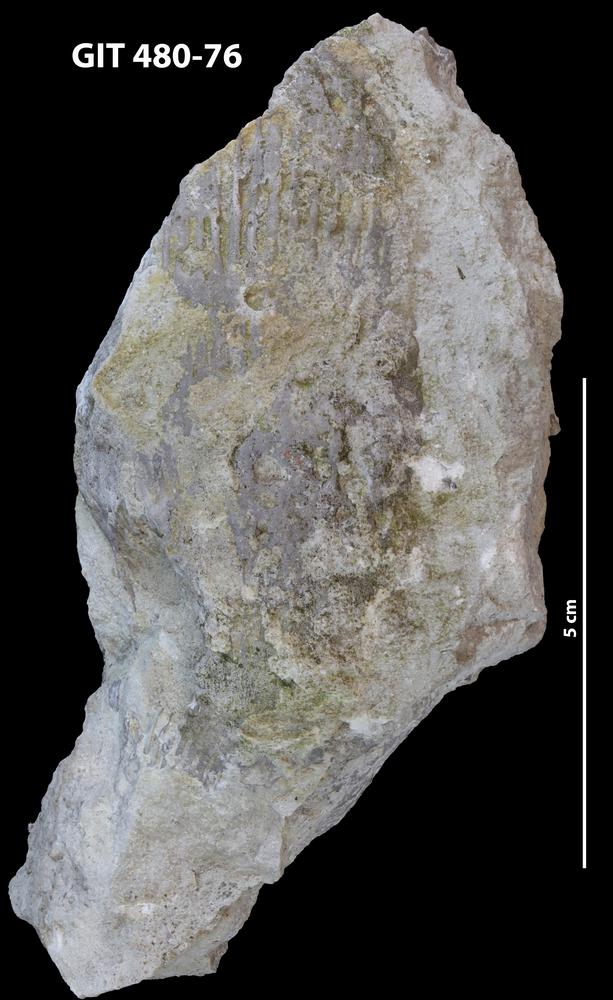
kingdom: Animalia
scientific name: Animalia
